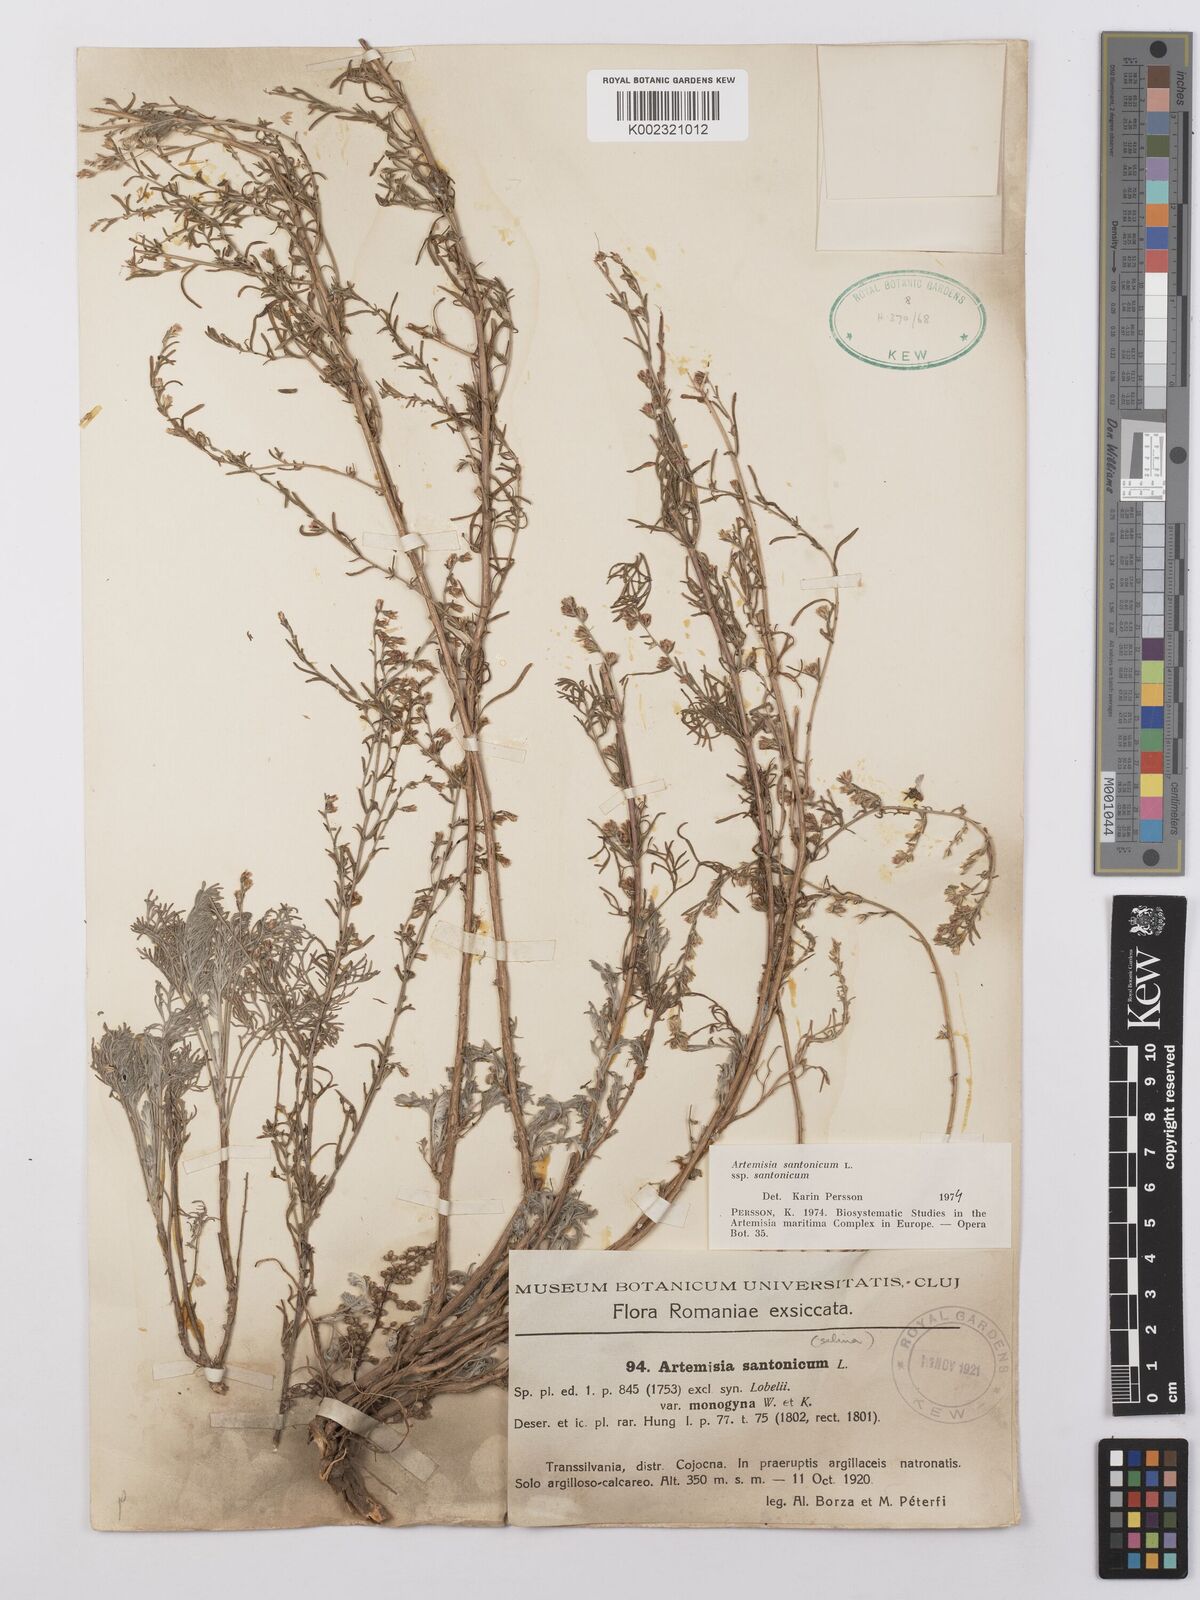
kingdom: Plantae
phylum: Tracheophyta
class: Magnoliopsida
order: Asterales
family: Asteraceae
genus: Artemisia
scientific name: Artemisia santonicum
